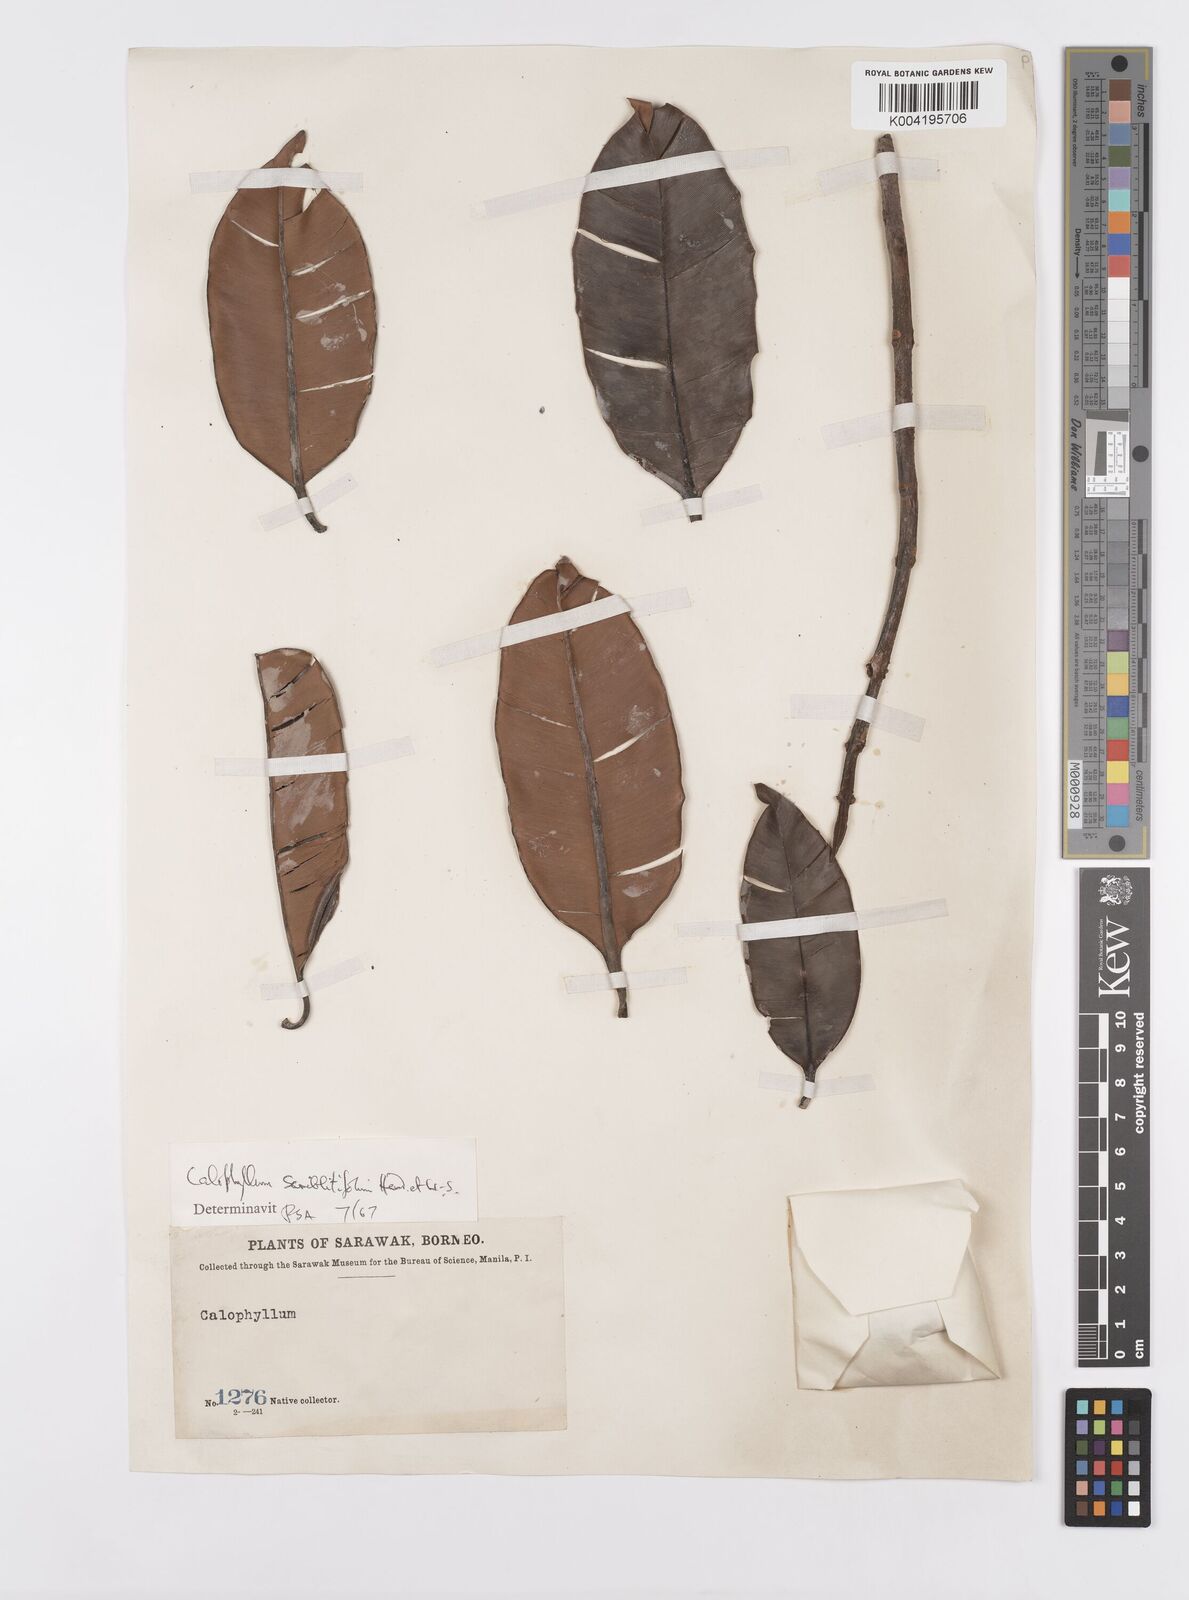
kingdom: Plantae
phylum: Tracheophyta
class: Magnoliopsida
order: Malpighiales
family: Calophyllaceae
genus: Calophyllum
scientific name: Calophyllum scriblitifolium
